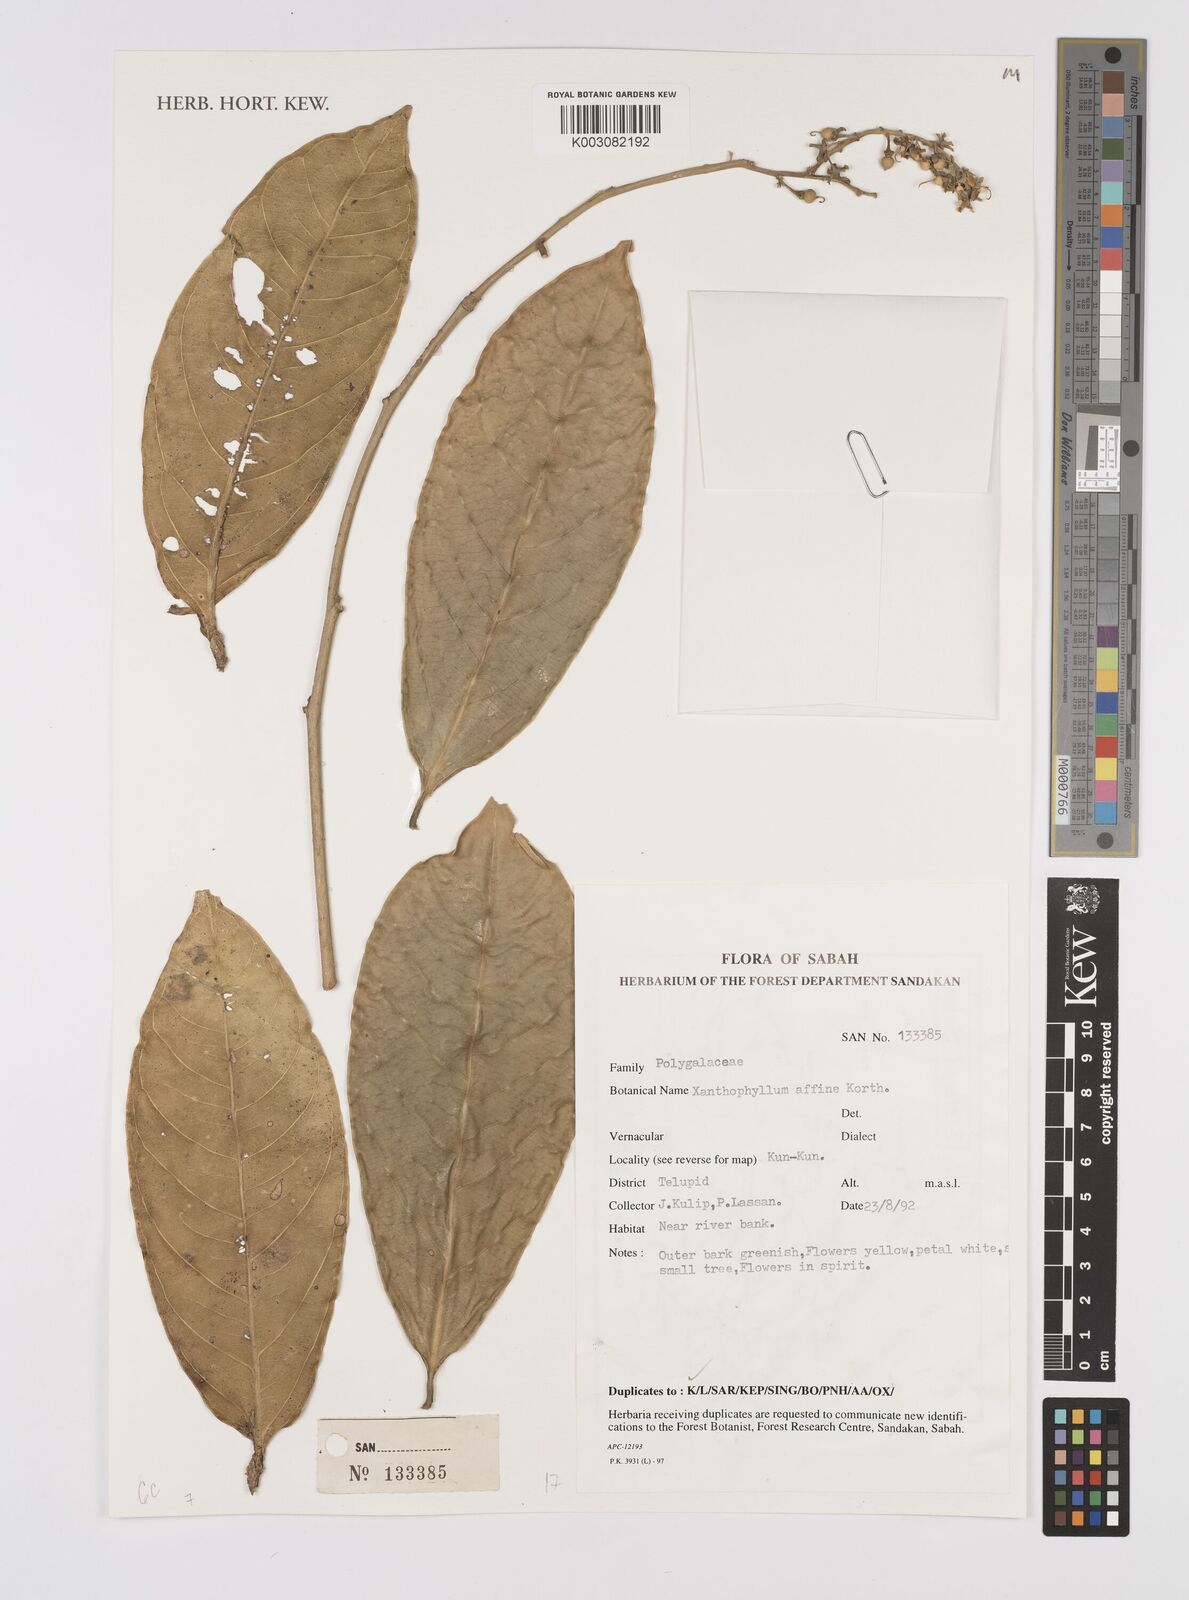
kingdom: Plantae
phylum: Tracheophyta
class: Magnoliopsida
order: Fabales
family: Polygalaceae
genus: Xanthophyllum
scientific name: Xanthophyllum flavescens
